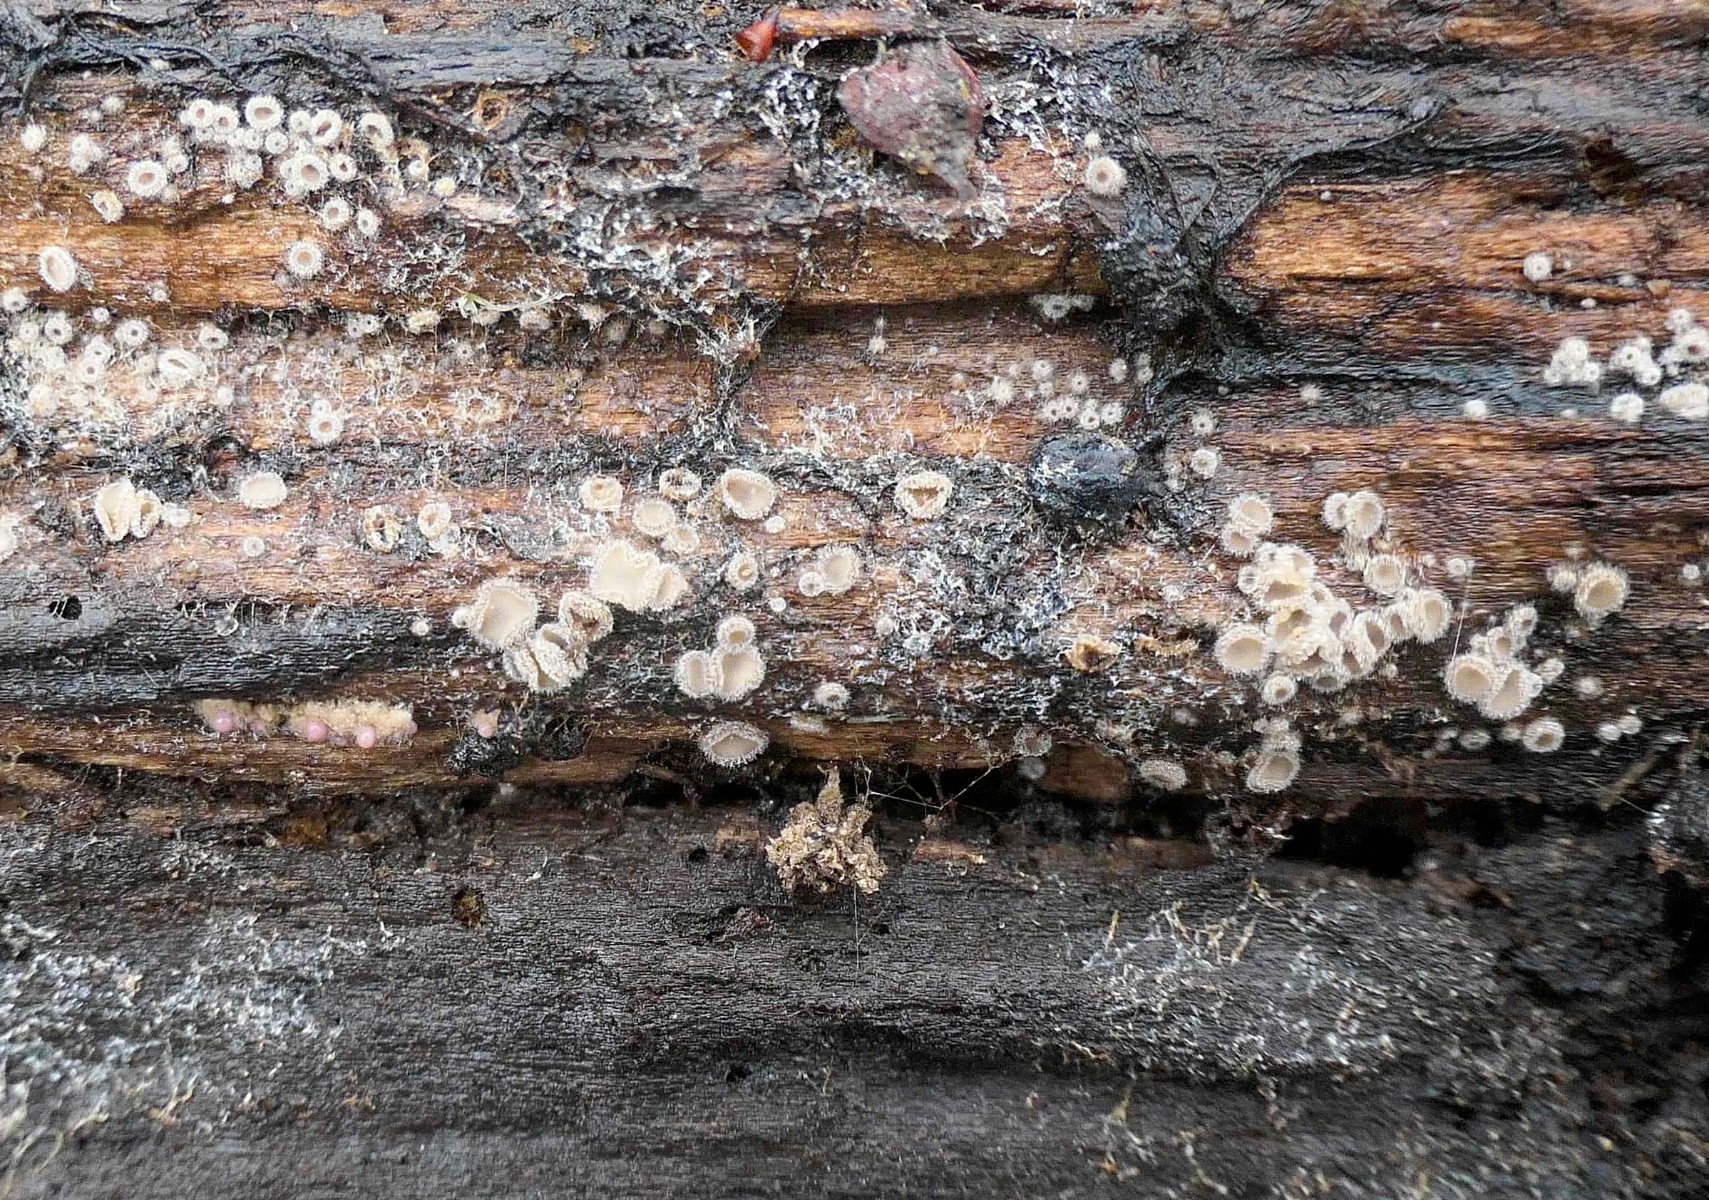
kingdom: Fungi
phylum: Ascomycota
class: Leotiomycetes
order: Helotiales
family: Solenopeziaceae
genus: Lasiobelonium
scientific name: Lasiobelonium variegatum
